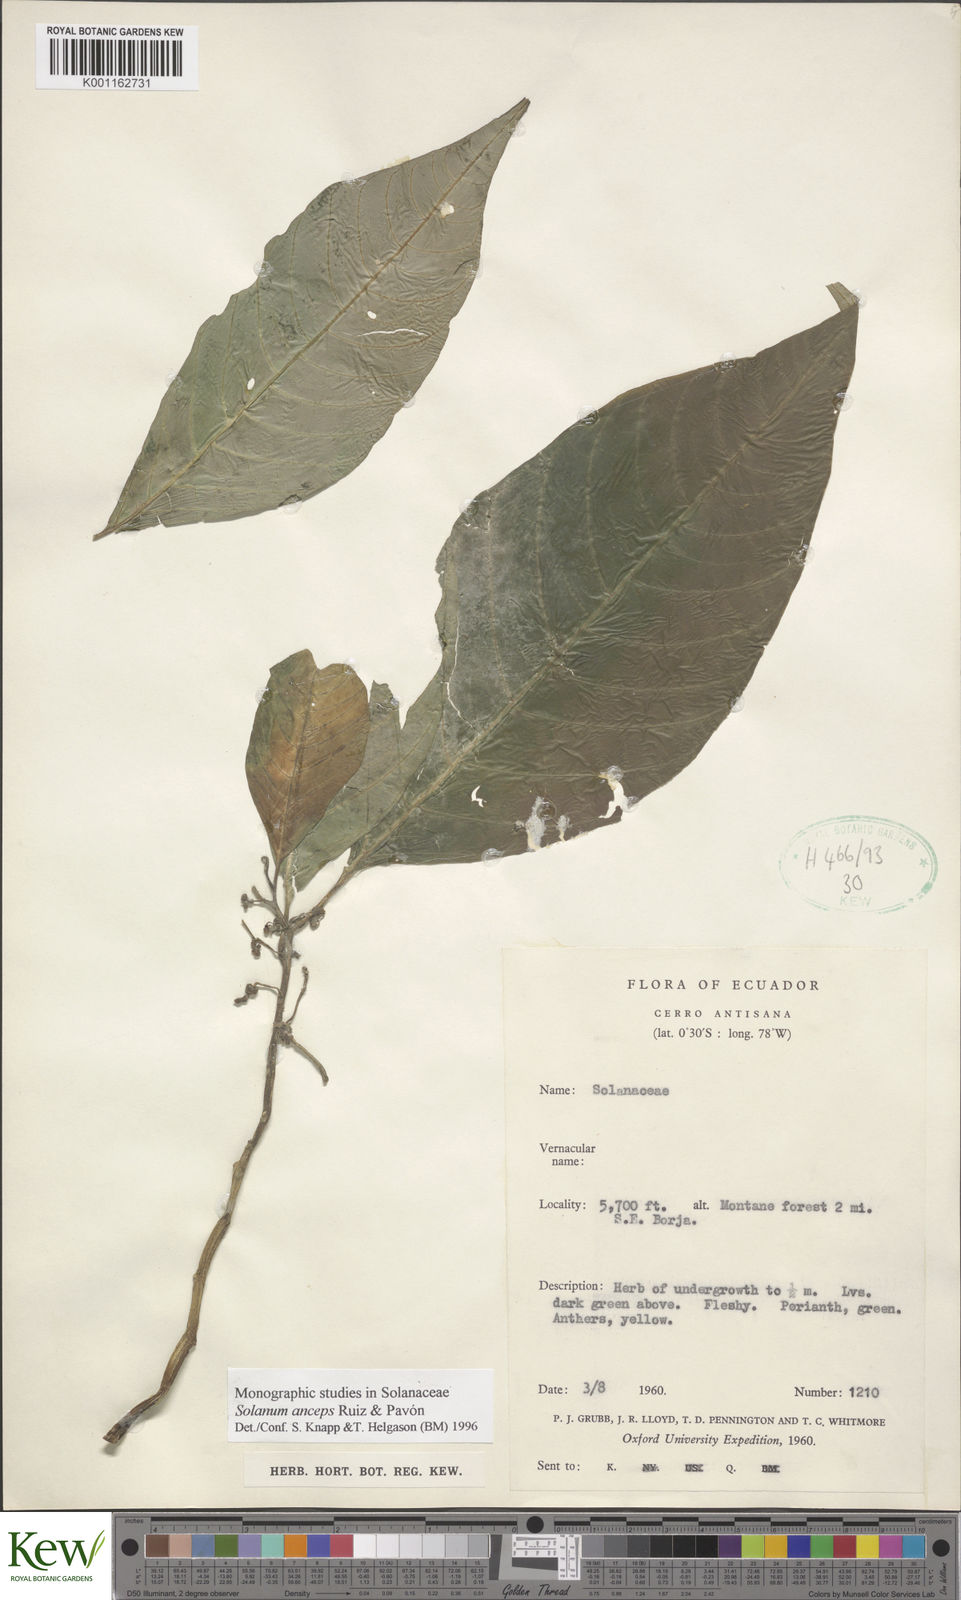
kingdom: Plantae
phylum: Tracheophyta
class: Magnoliopsida
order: Solanales
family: Solanaceae
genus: Solanum
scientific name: Solanum anceps
